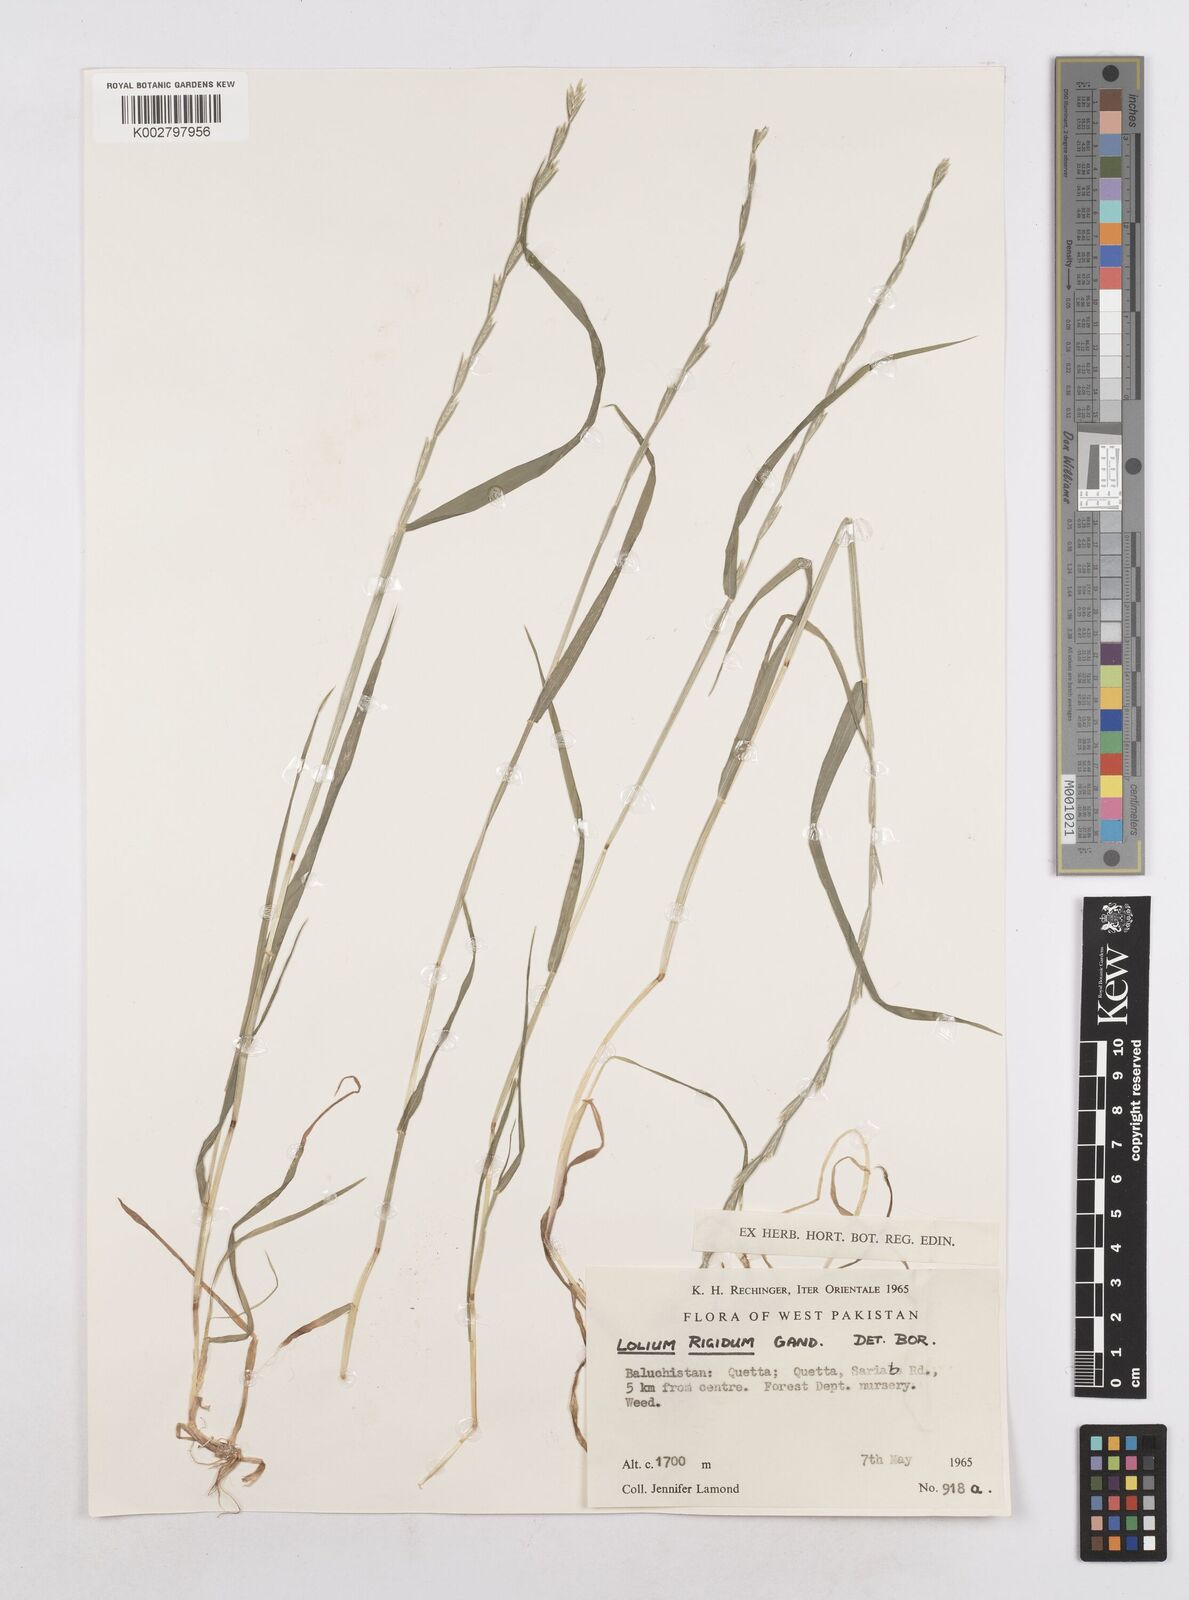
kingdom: Plantae
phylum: Tracheophyta
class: Liliopsida
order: Poales
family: Poaceae
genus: Lolium
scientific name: Lolium rigidum
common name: Wimmera ryegrass
